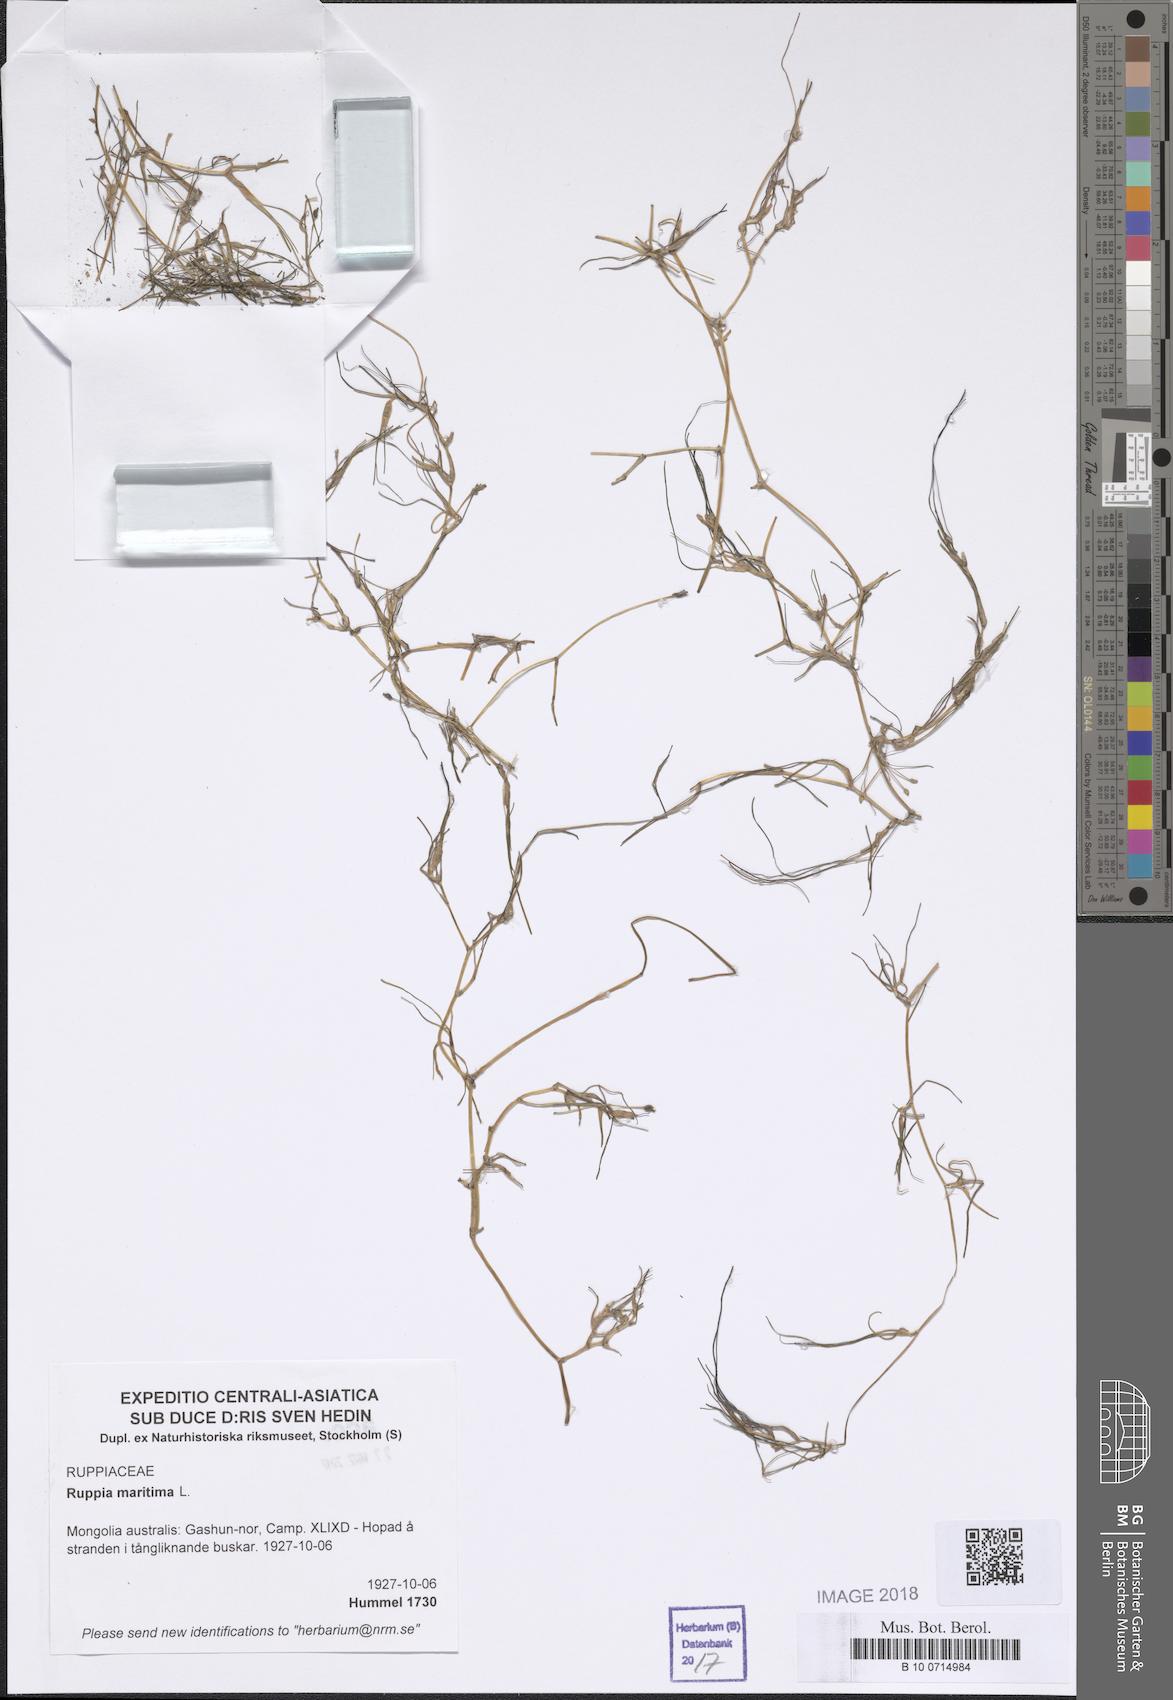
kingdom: Plantae
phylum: Tracheophyta
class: Liliopsida
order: Alismatales
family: Ruppiaceae
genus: Ruppia
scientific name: Ruppia maritima
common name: Beaked tasselweed
